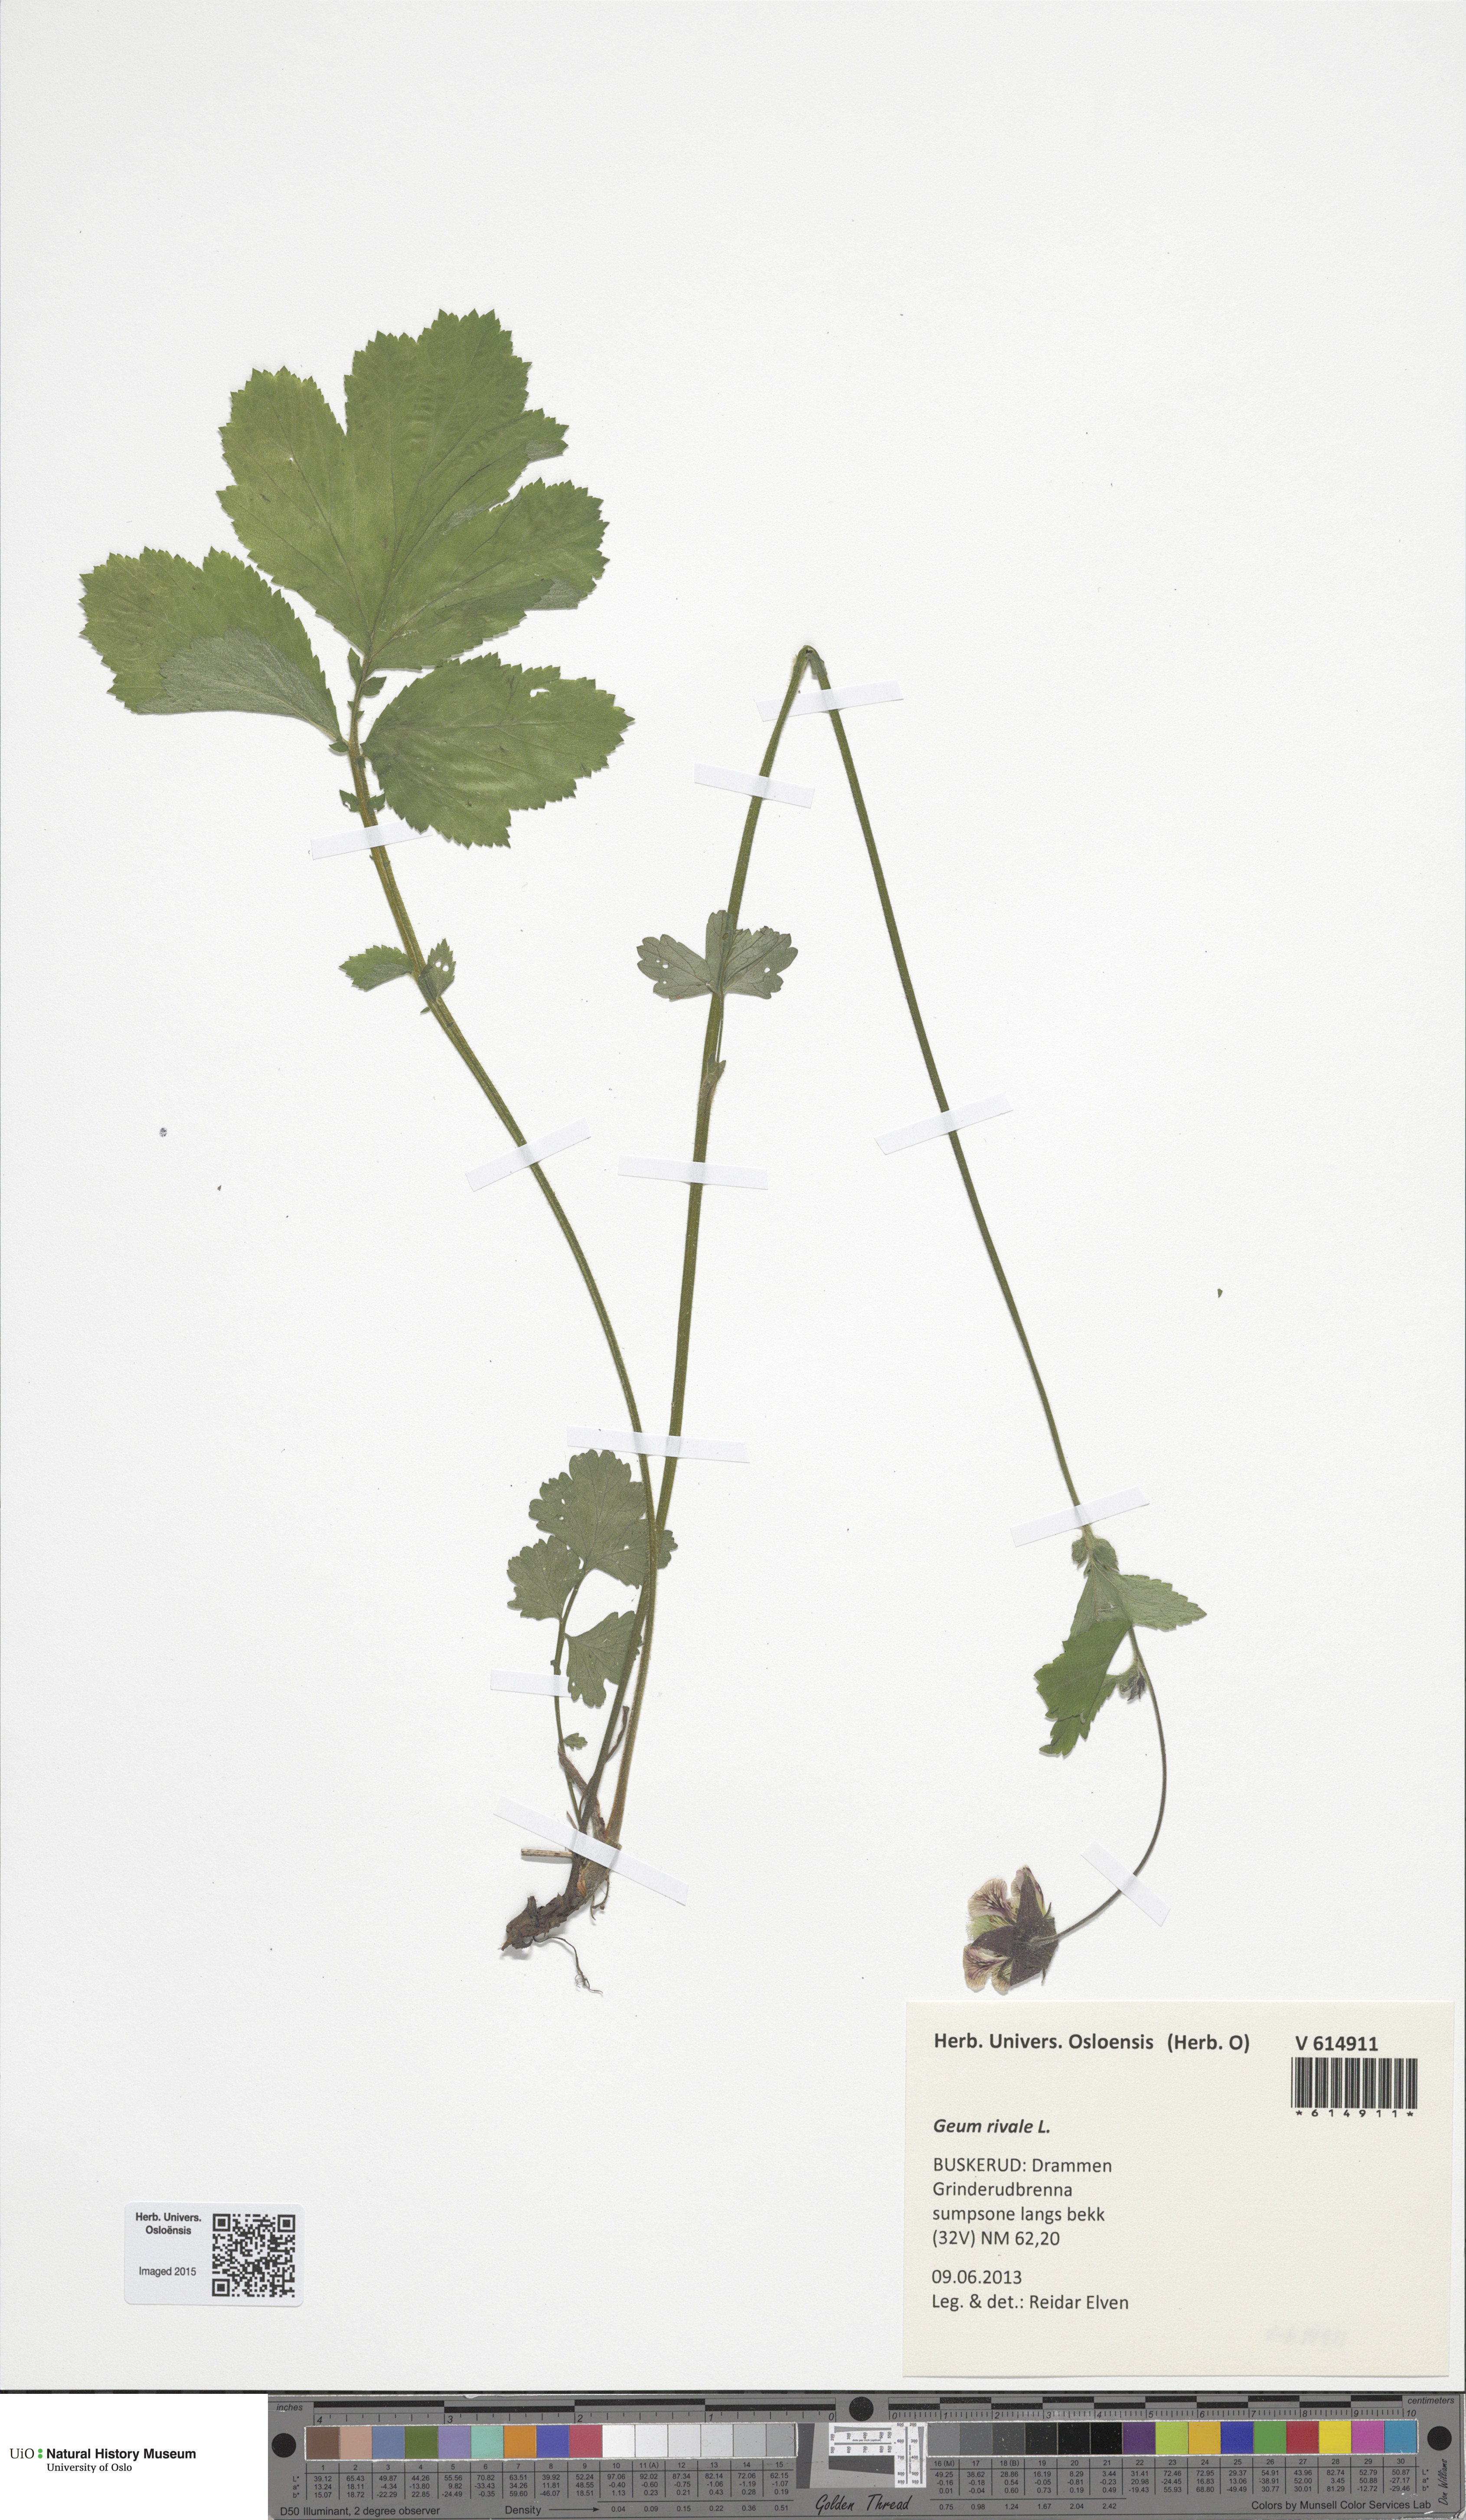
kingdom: Plantae
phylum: Tracheophyta
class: Magnoliopsida
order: Rosales
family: Rosaceae
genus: Geum
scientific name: Geum rivale
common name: Water avens
